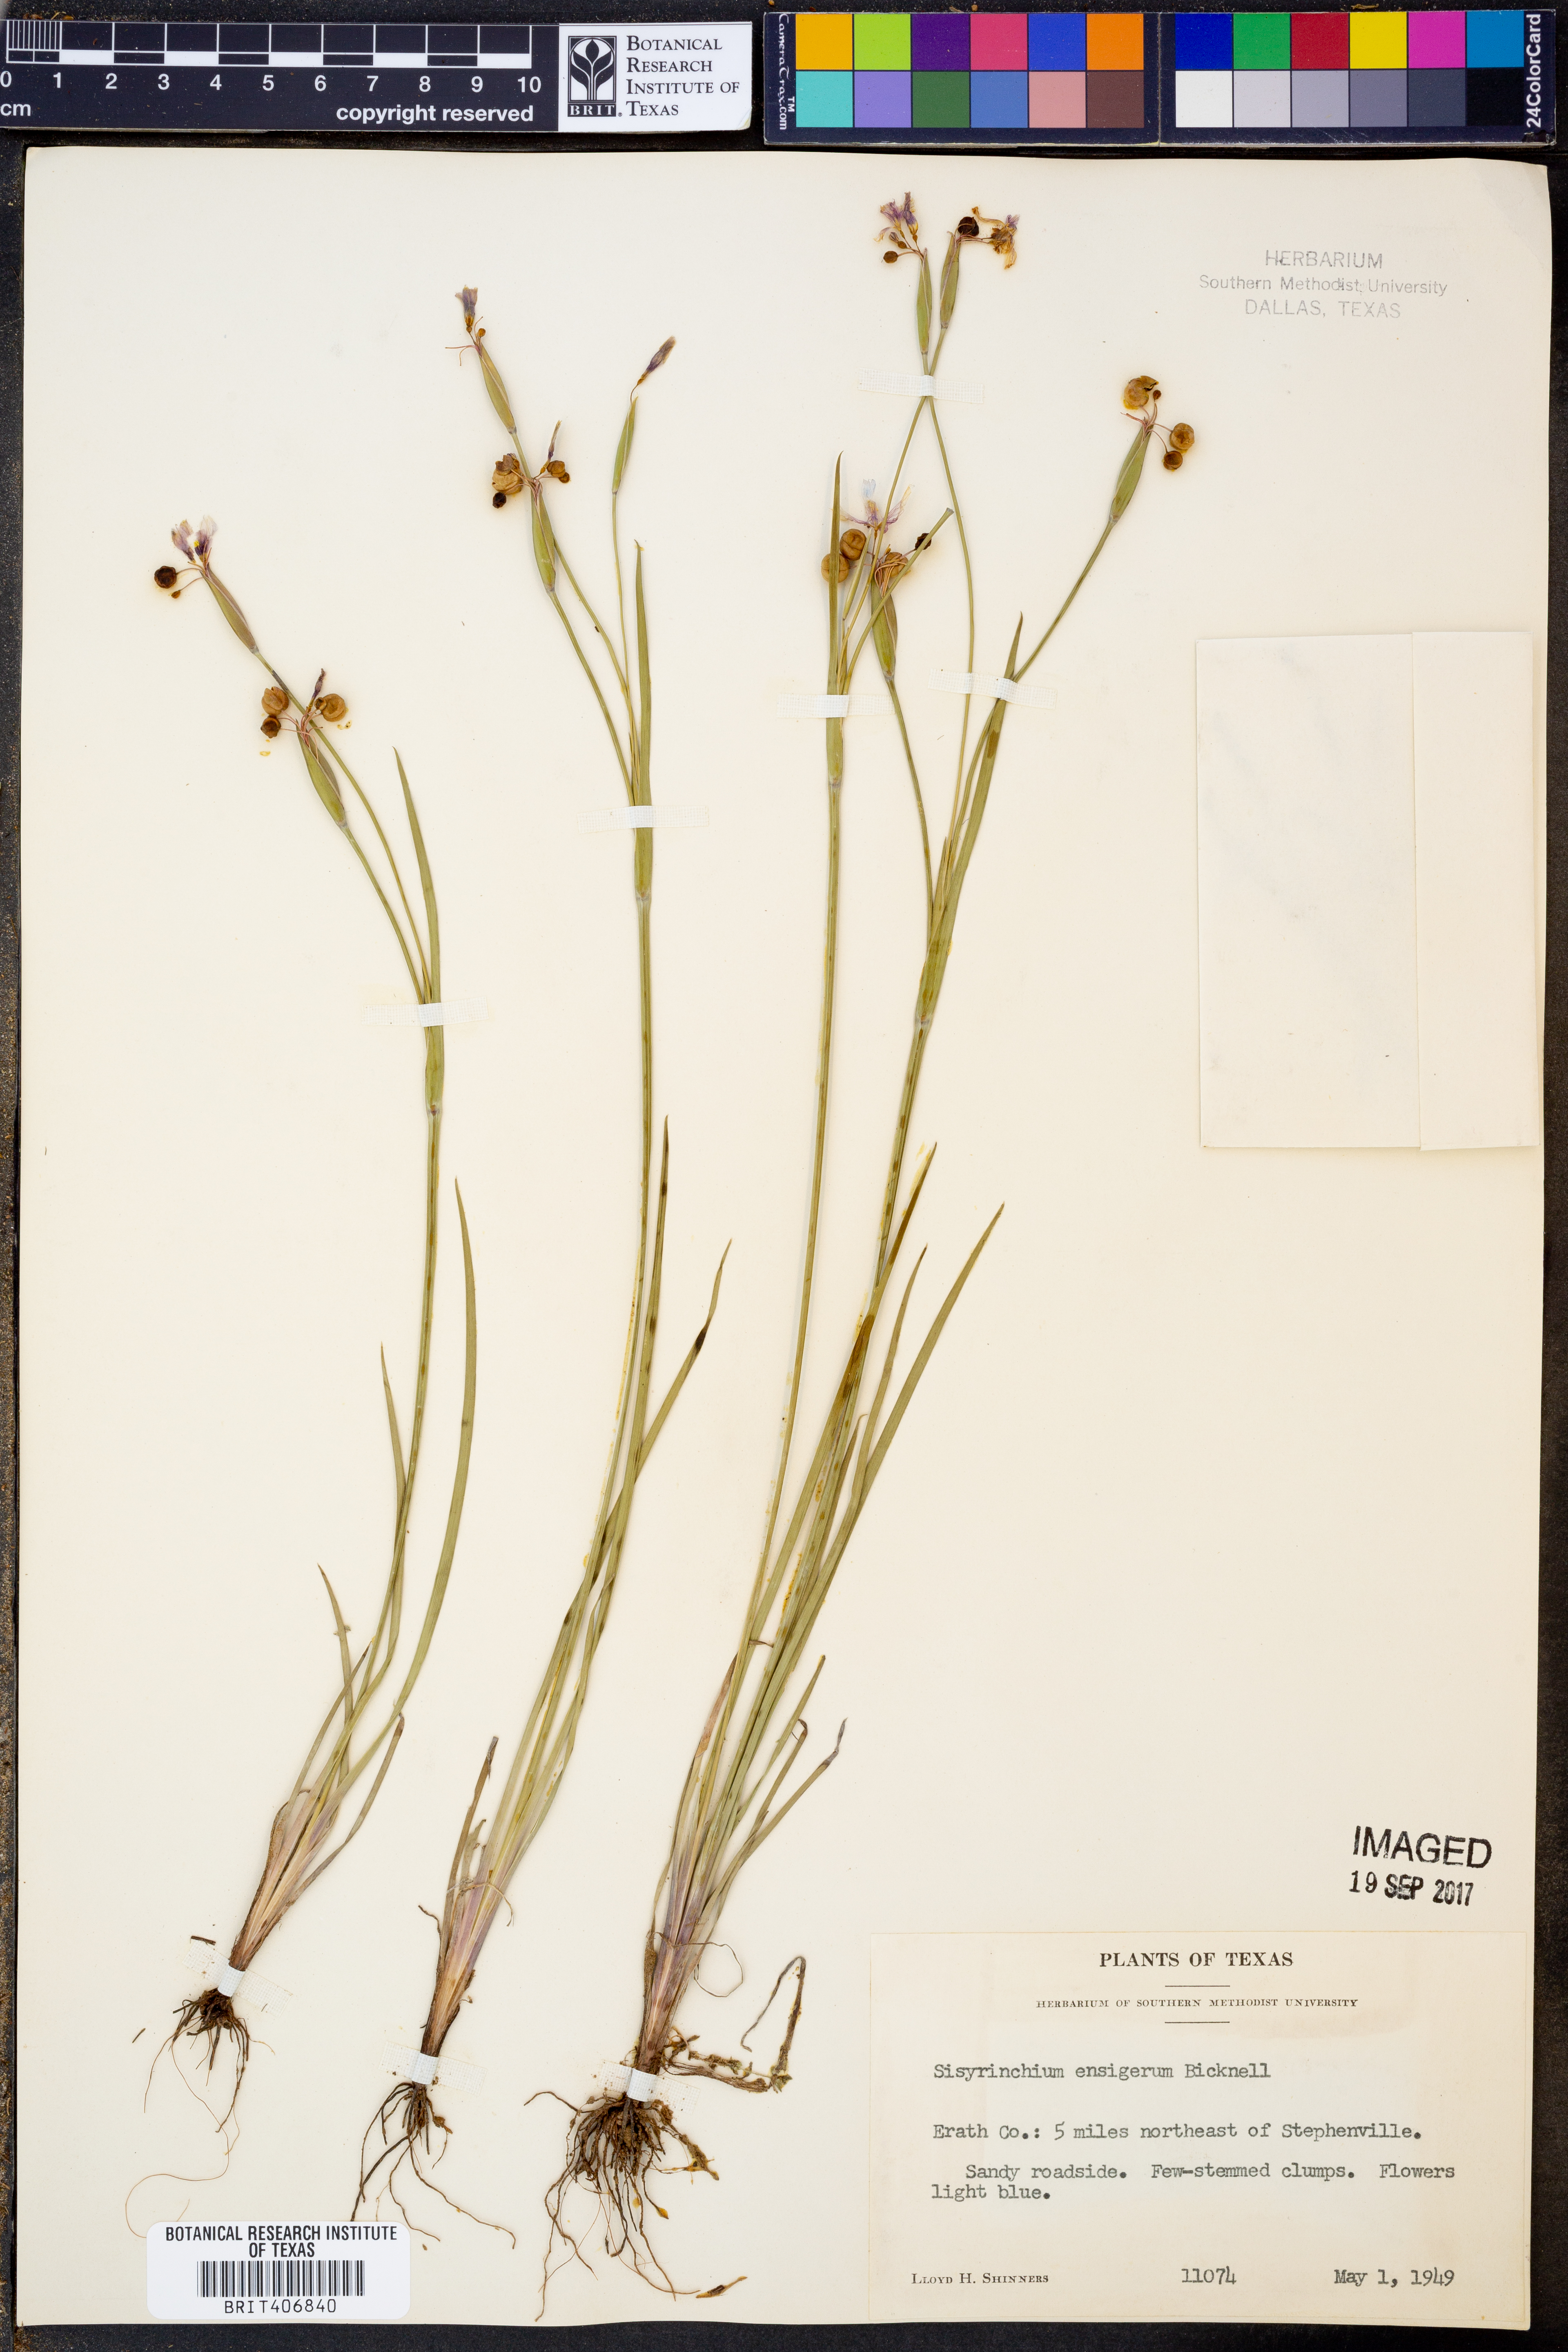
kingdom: Plantae
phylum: Tracheophyta
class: Liliopsida
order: Asparagales
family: Iridaceae
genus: Sisyrinchium
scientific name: Sisyrinchium ensigerum
